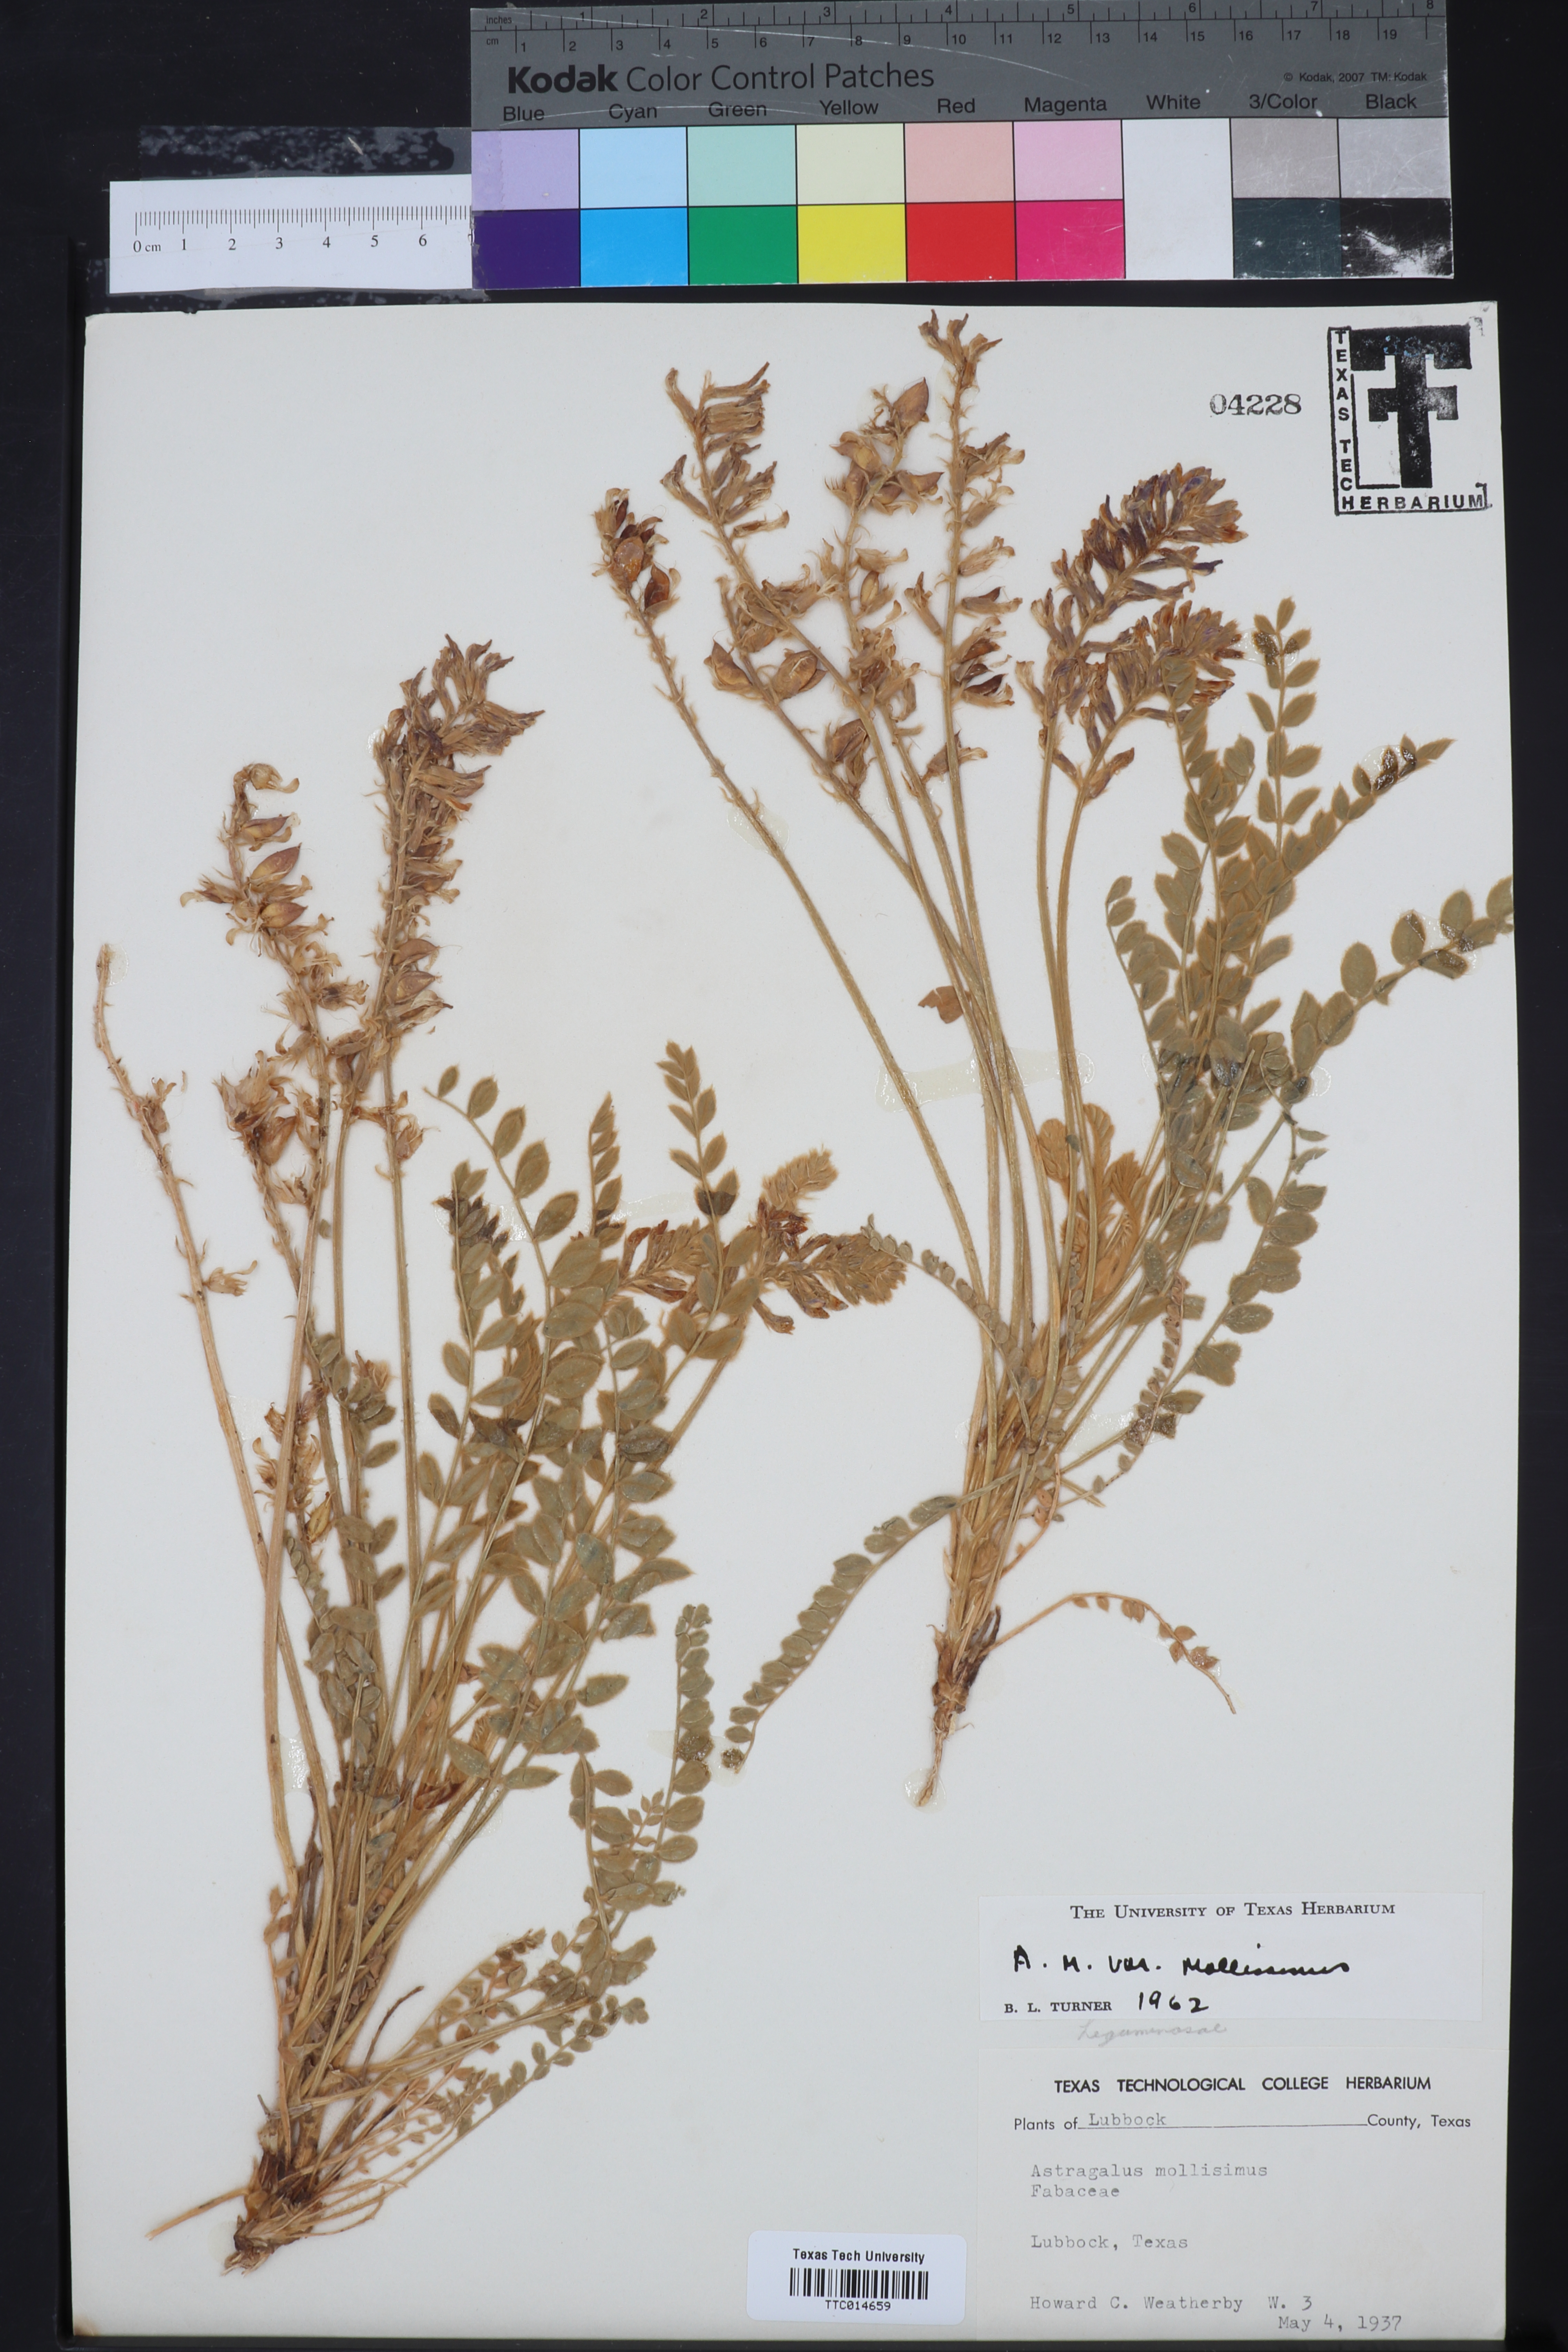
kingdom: Plantae
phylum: Tracheophyta
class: Magnoliopsida
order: Fabales
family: Fabaceae
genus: Astragalus
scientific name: Astragalus mollissimus
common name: Woolly locoweed
